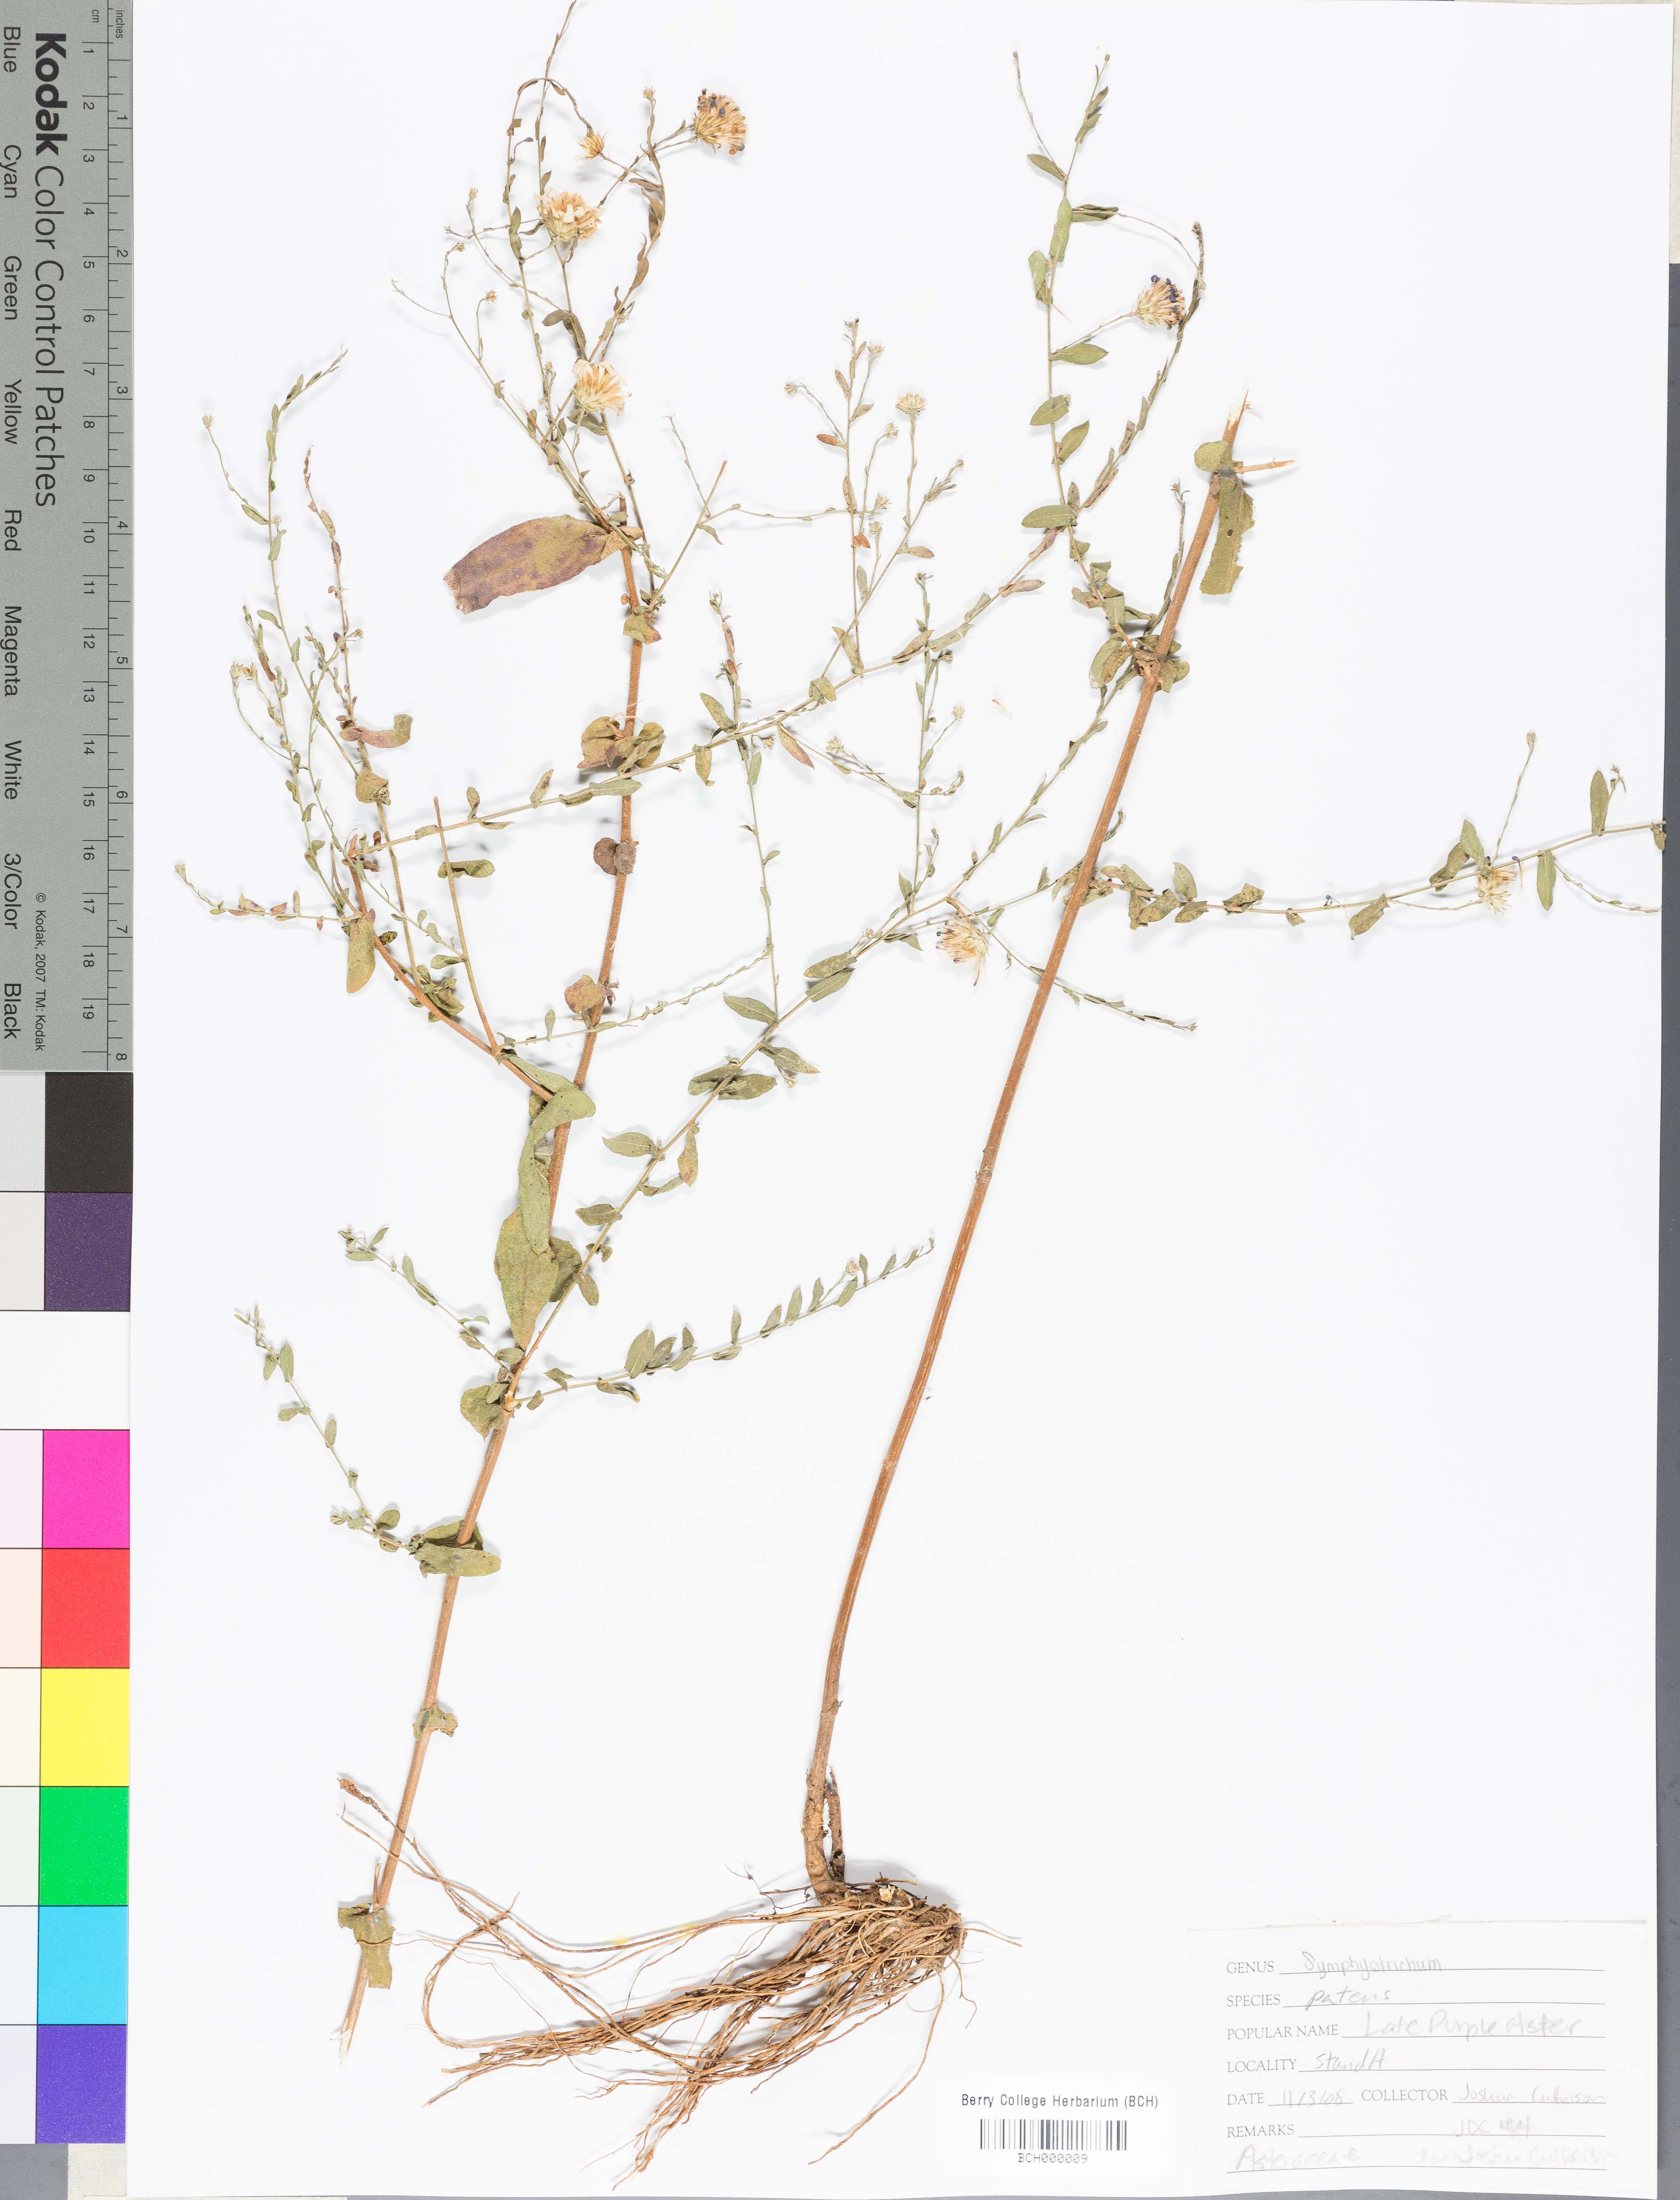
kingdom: Plantae
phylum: Tracheophyta
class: Magnoliopsida
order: Asterales
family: Asteraceae
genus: Symphyotrichum
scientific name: Symphyotrichum patens
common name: Late purple aster
